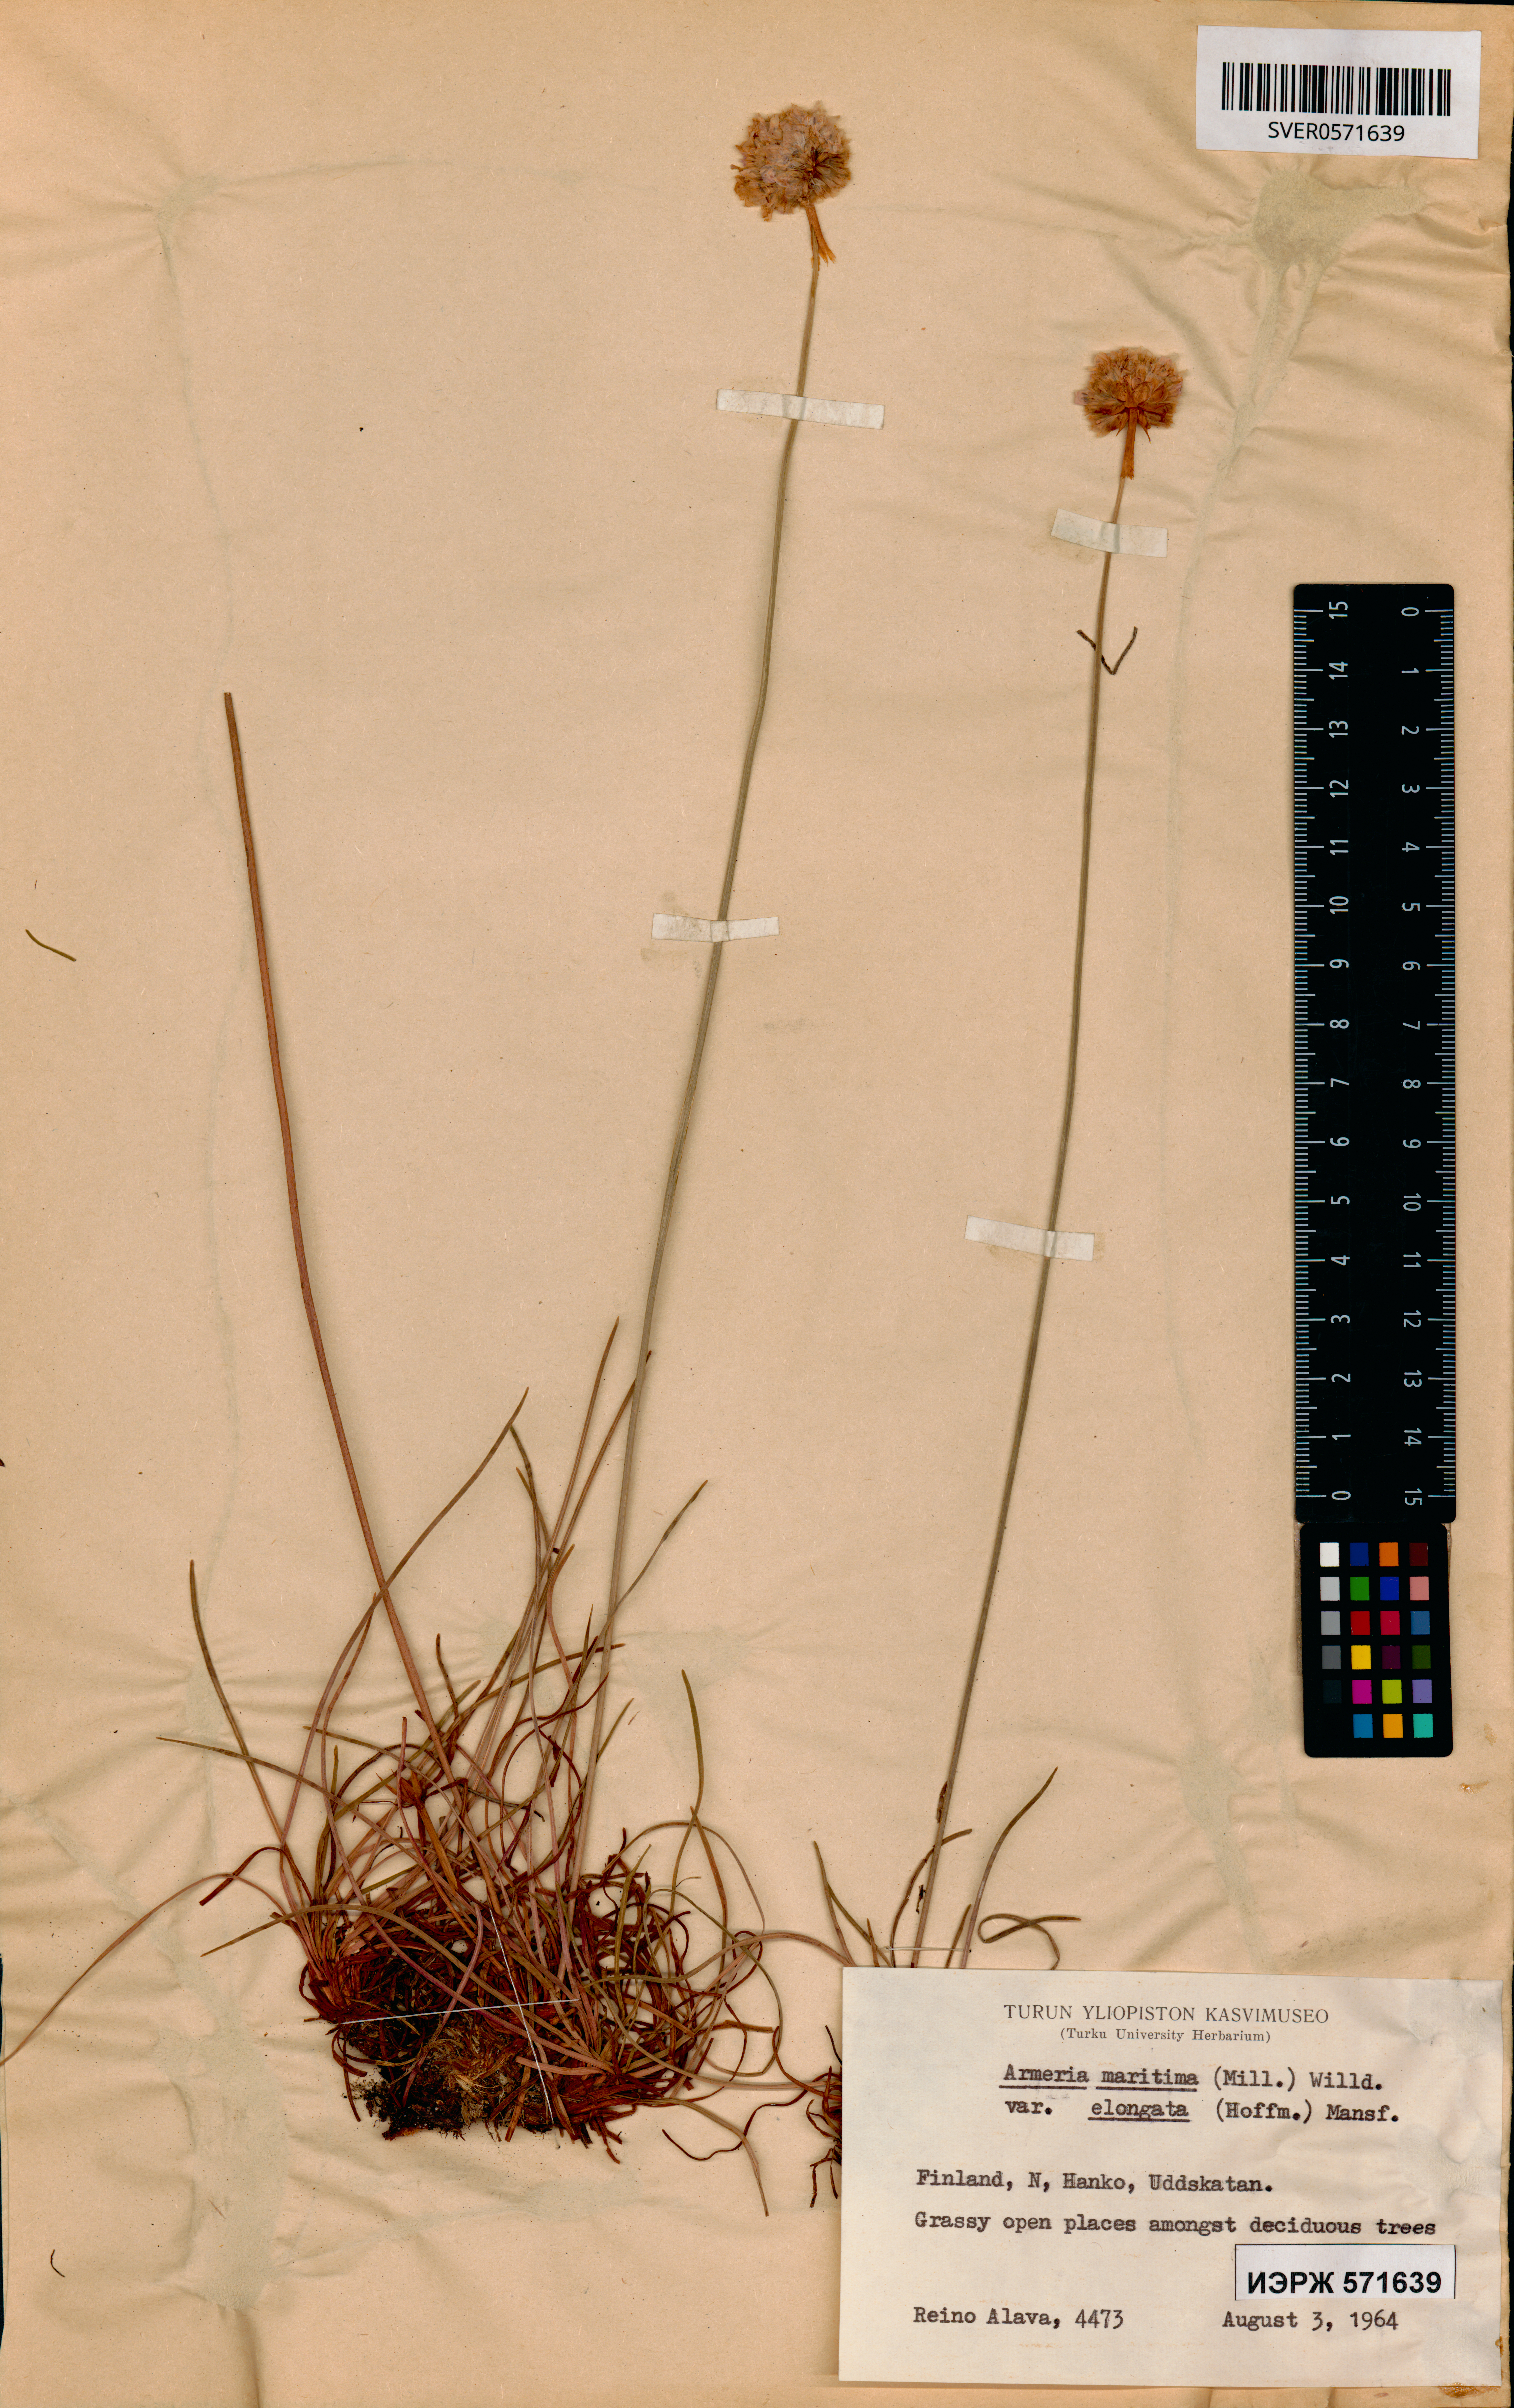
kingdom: Plantae
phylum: Tracheophyta
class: Magnoliopsida
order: Caryophyllales
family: Plumbaginaceae
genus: Armeria
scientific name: Armeria maritima
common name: Thrift
